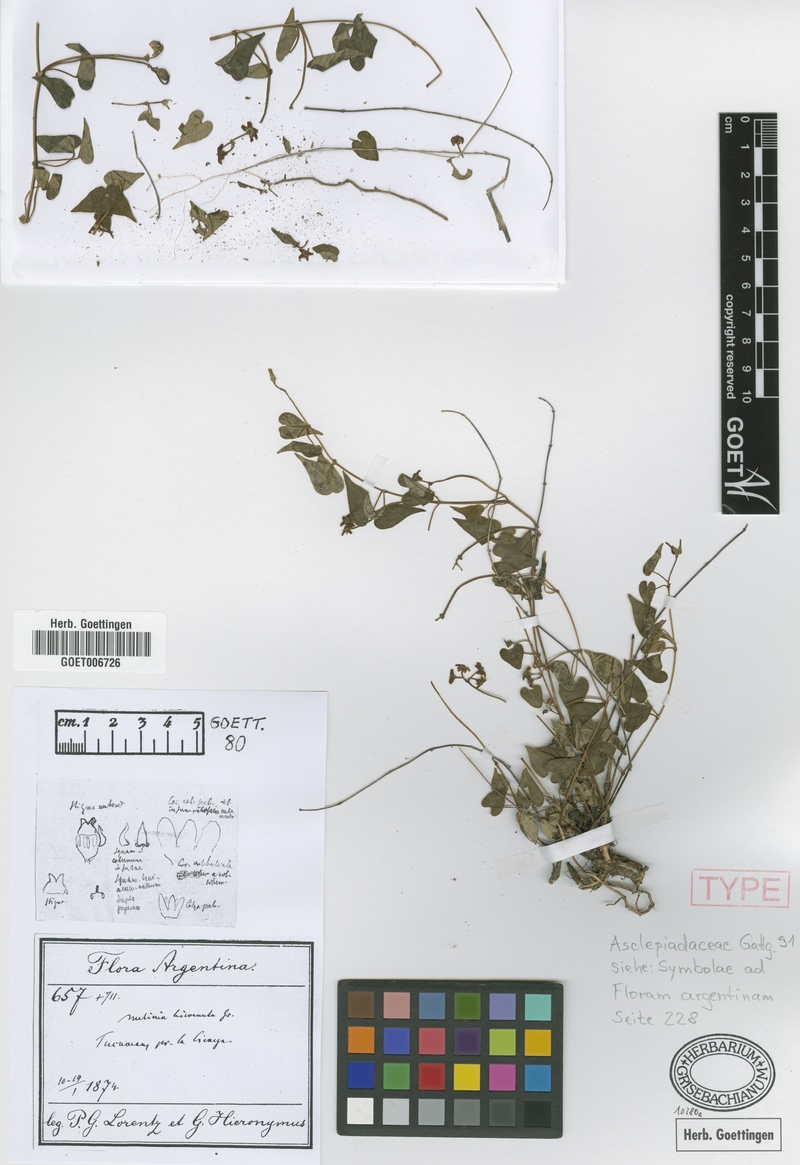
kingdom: Plantae
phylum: Tracheophyta
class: Magnoliopsida
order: Gentianales
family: Apocynaceae
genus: Philibertia
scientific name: Philibertia bicornuta
